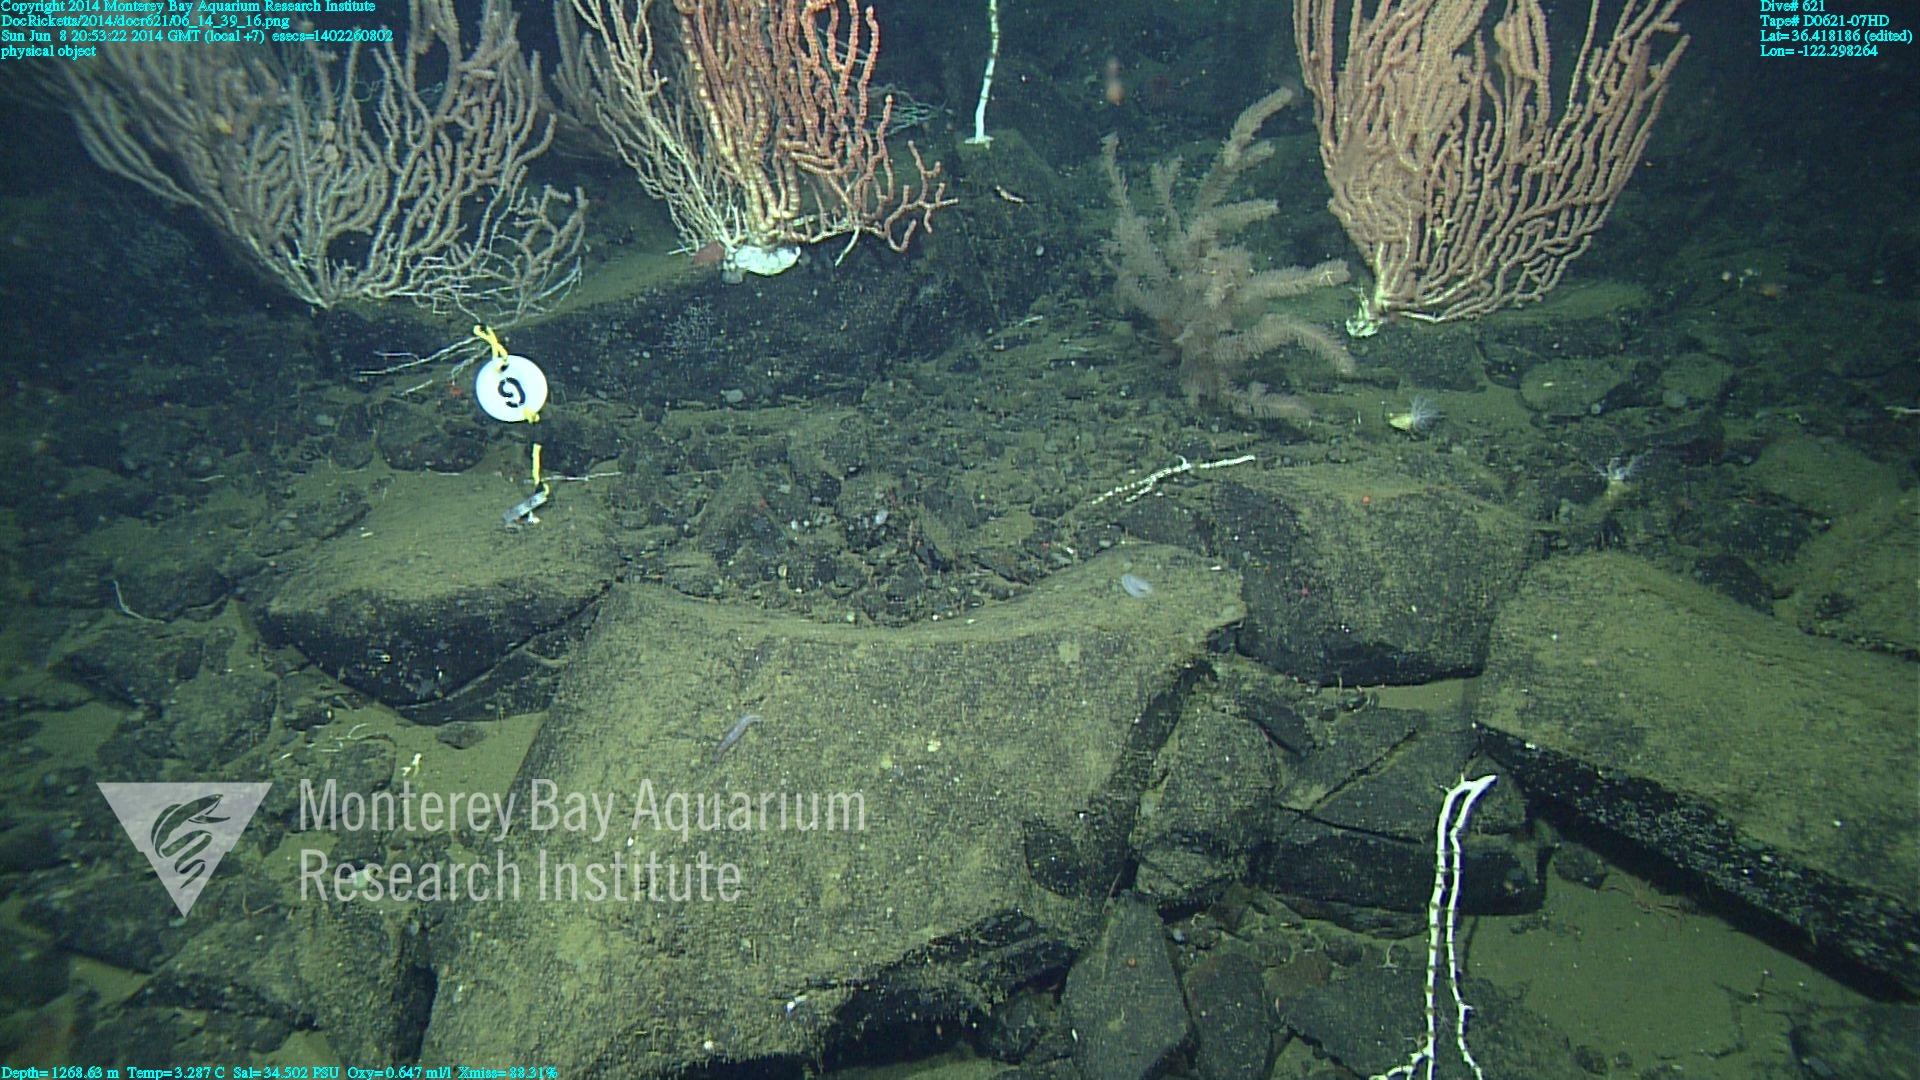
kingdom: Animalia
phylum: Cnidaria
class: Anthozoa
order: Scleralcyonacea
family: Keratoisididae
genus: Keratoisis
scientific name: Keratoisis
